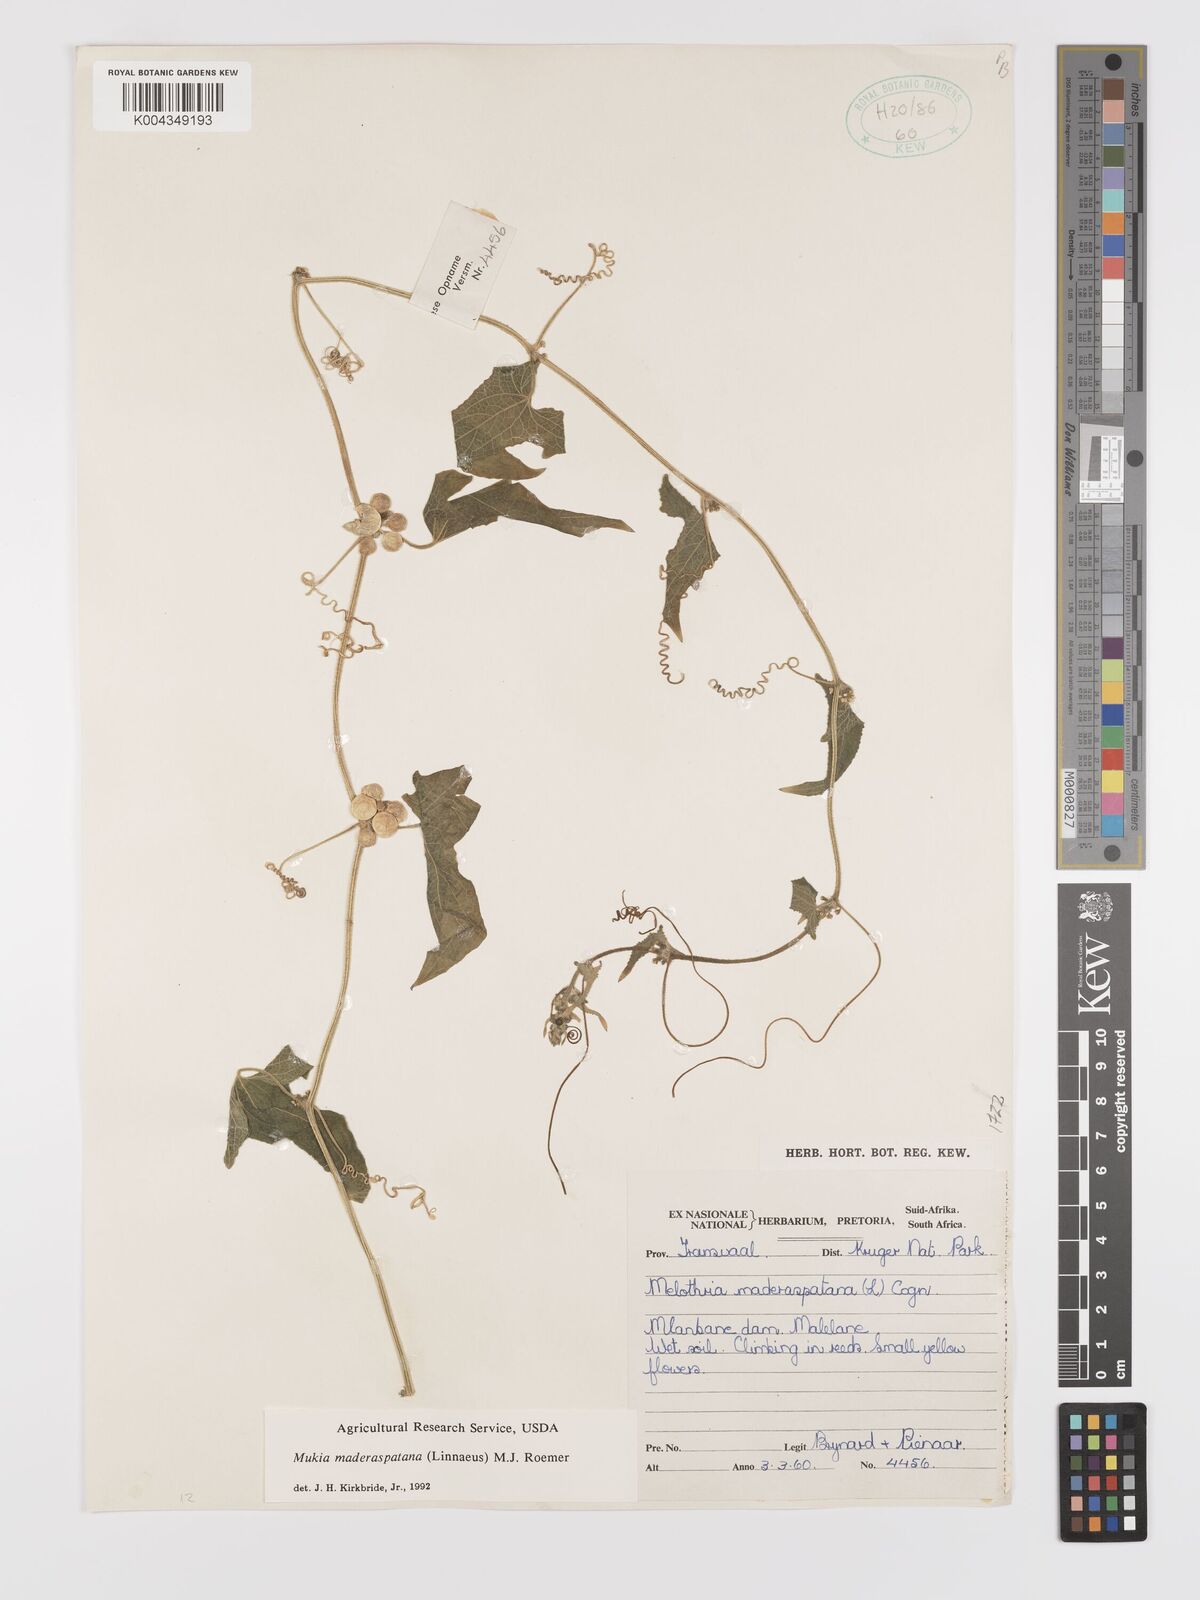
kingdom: Plantae
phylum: Tracheophyta
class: Magnoliopsida
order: Cucurbitales
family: Cucurbitaceae
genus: Cucumis
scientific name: Cucumis maderaspatanus
